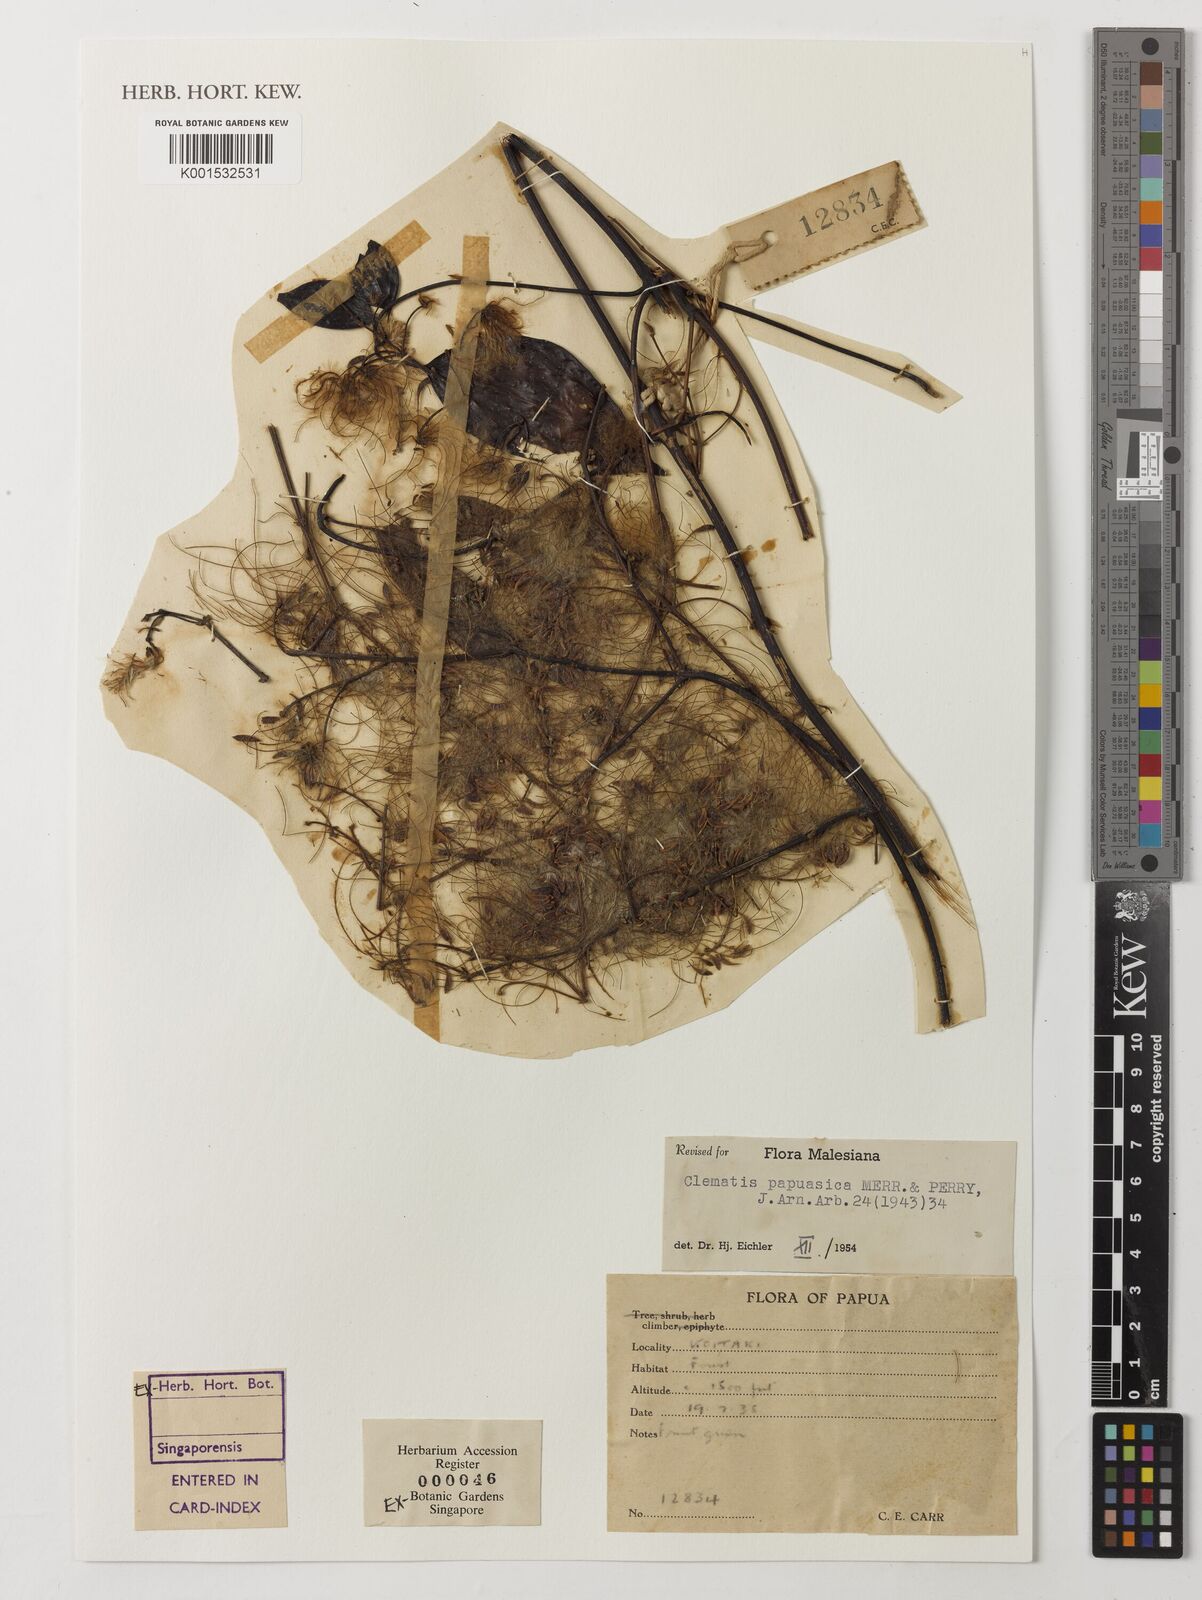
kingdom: Plantae
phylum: Tracheophyta
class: Magnoliopsida
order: Ranunculales
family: Ranunculaceae
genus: Clematis
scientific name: Clematis papuasica
